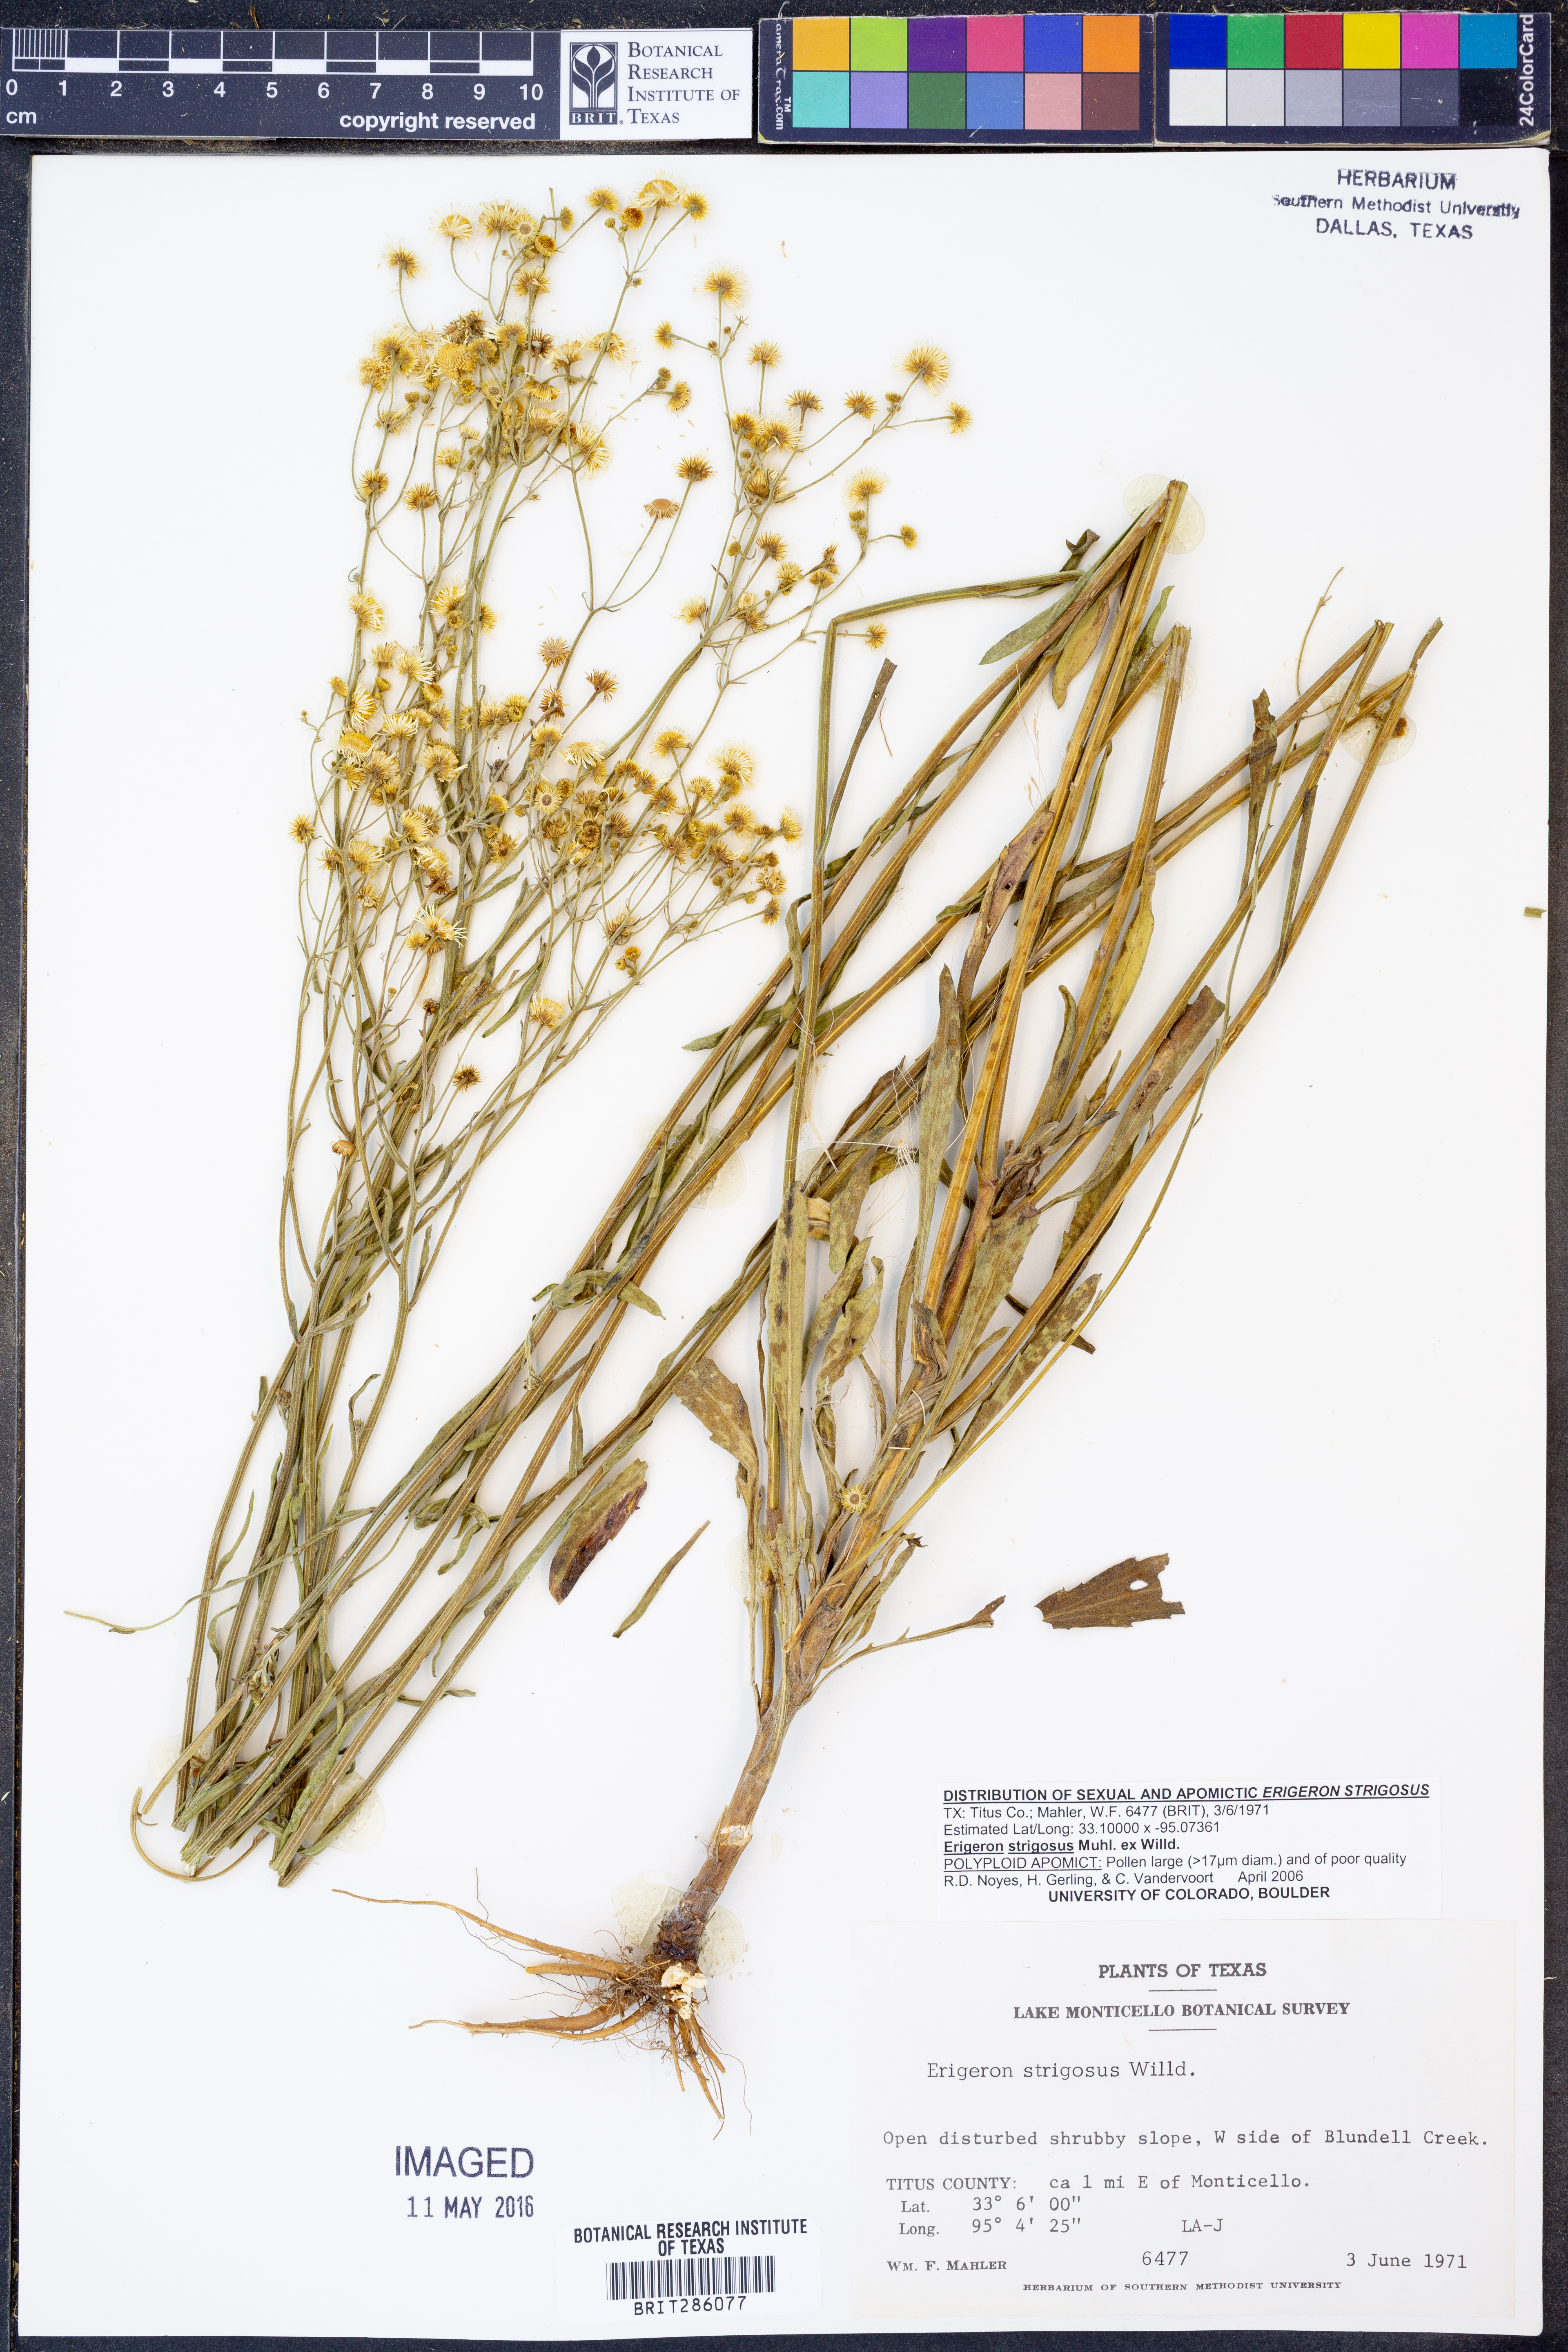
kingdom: Plantae
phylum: Tracheophyta
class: Magnoliopsida
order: Asterales
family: Asteraceae
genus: Erigeron
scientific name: Erigeron strigosus
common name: Common eastern fleabane
